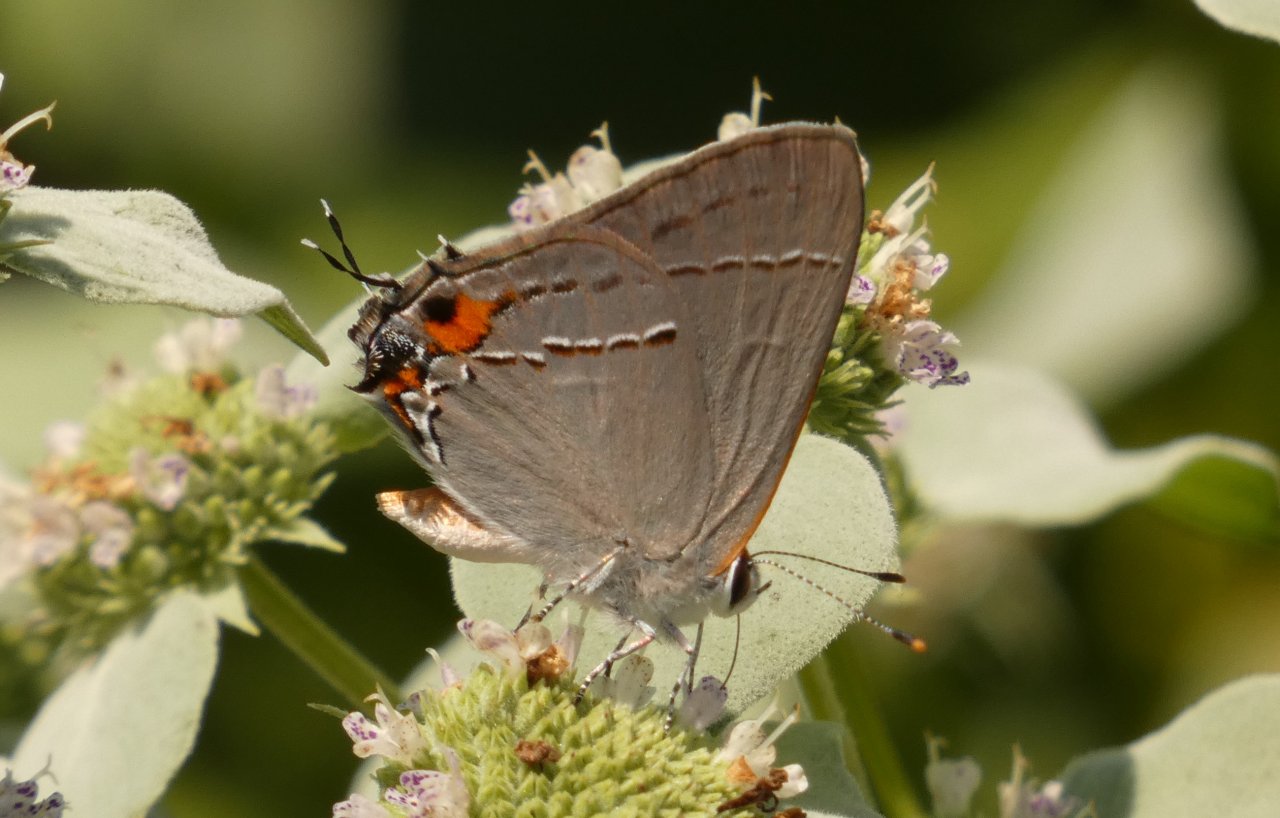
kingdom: Animalia
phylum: Arthropoda
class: Insecta
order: Lepidoptera
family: Lycaenidae
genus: Strymon
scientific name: Strymon melinus
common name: Gray Hairstreak
